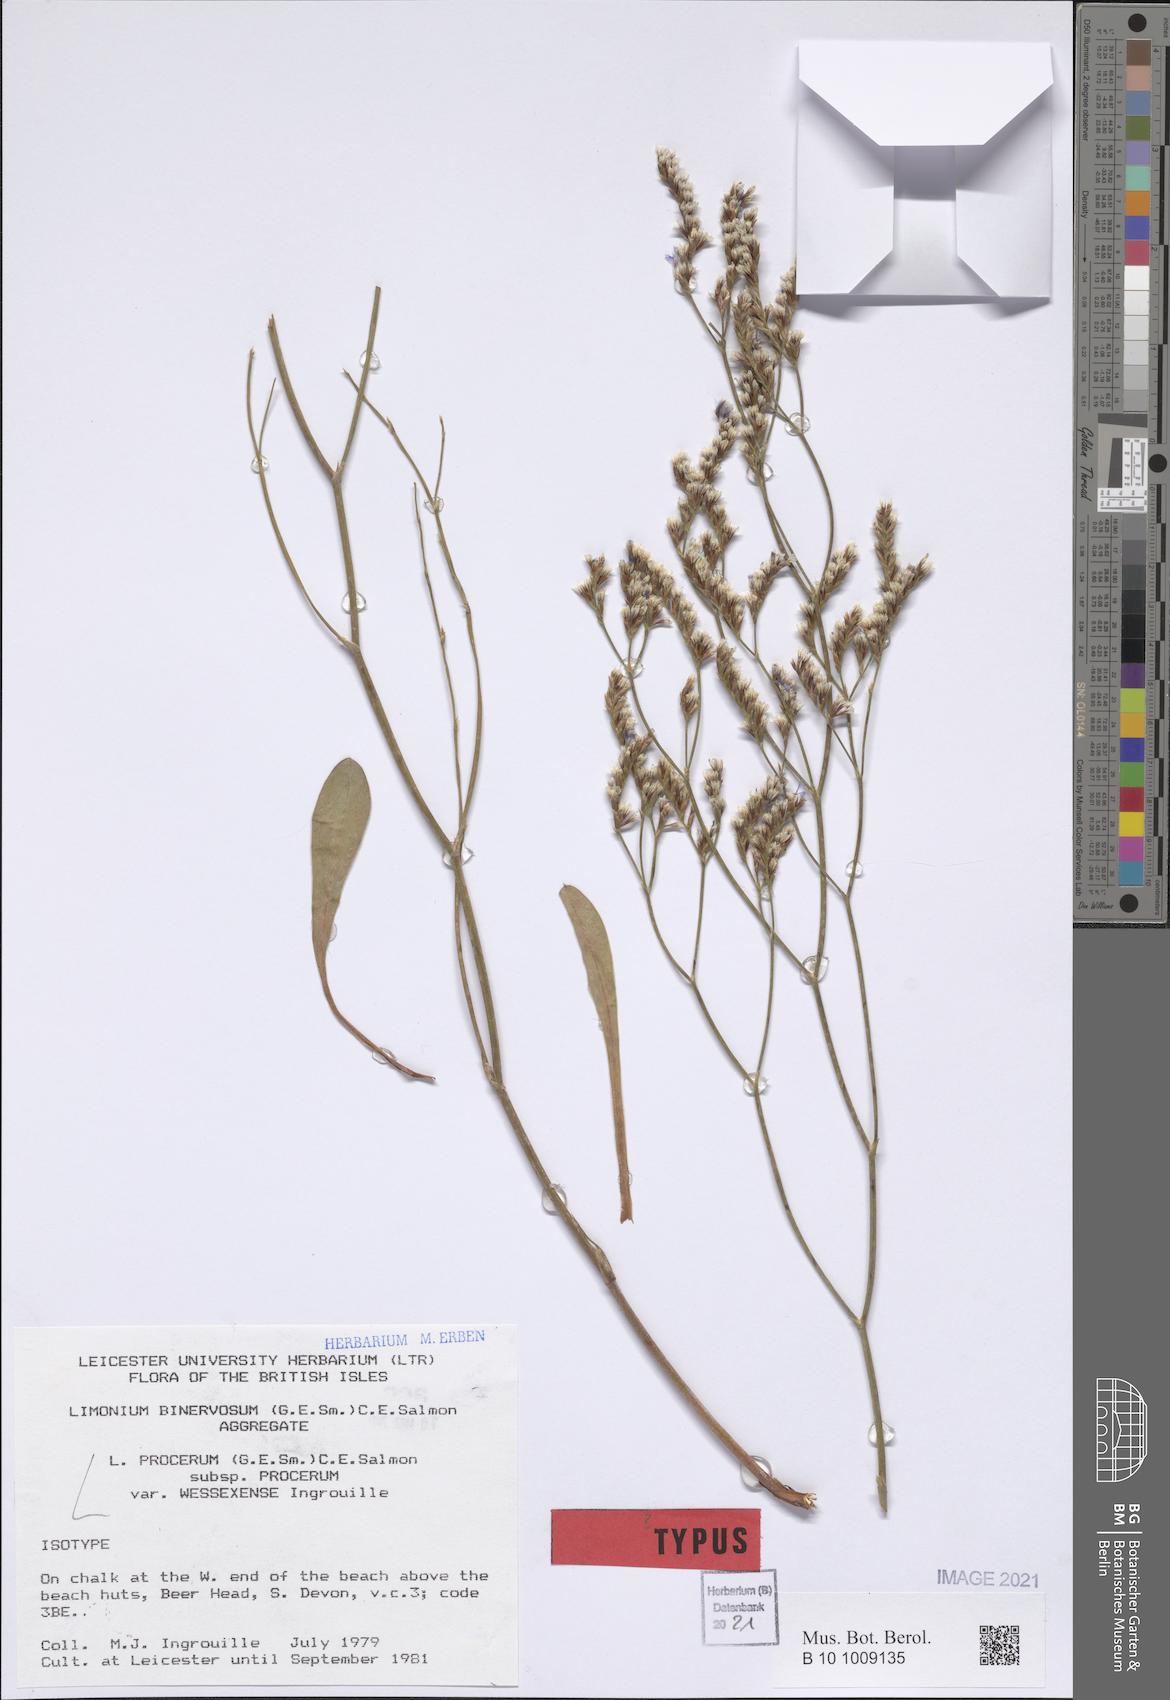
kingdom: Plantae
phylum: Tracheophyta
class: Magnoliopsida
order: Caryophyllales
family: Plumbaginaceae
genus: Limonium
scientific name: Limonium wessexense
